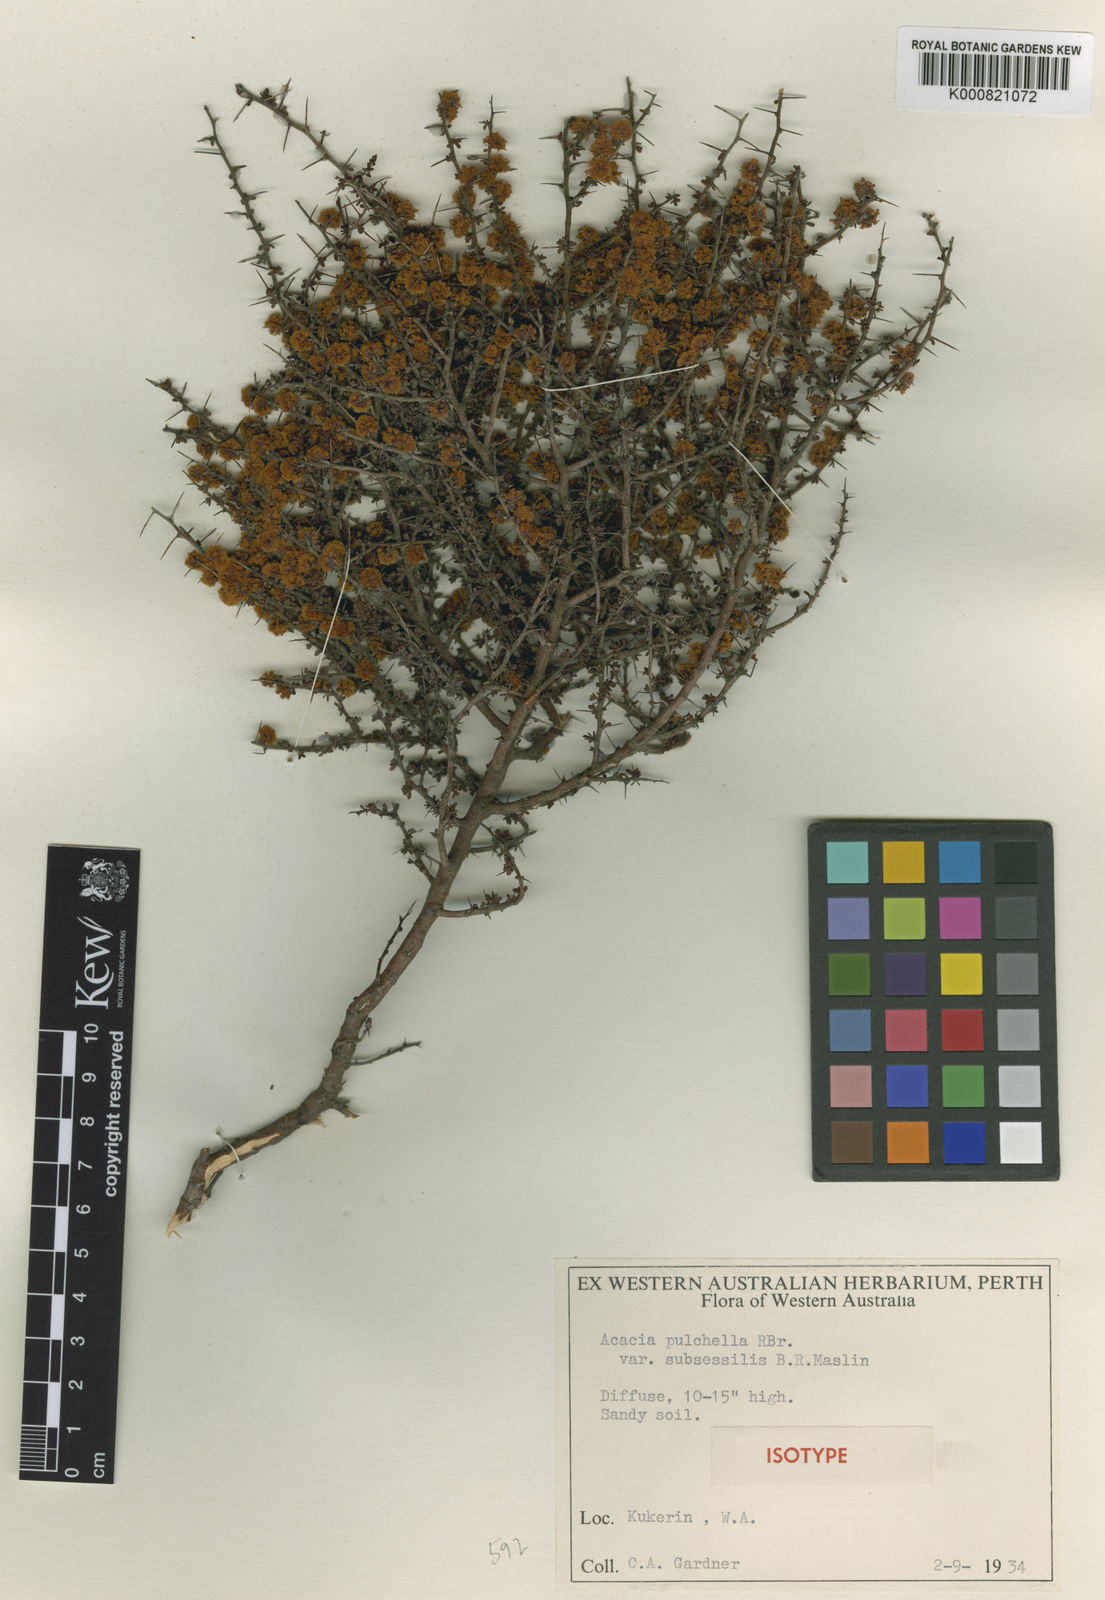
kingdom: Plantae
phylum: Tracheophyta
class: Magnoliopsida
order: Fabales
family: Fabaceae
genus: Acacia
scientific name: Acacia amputata
